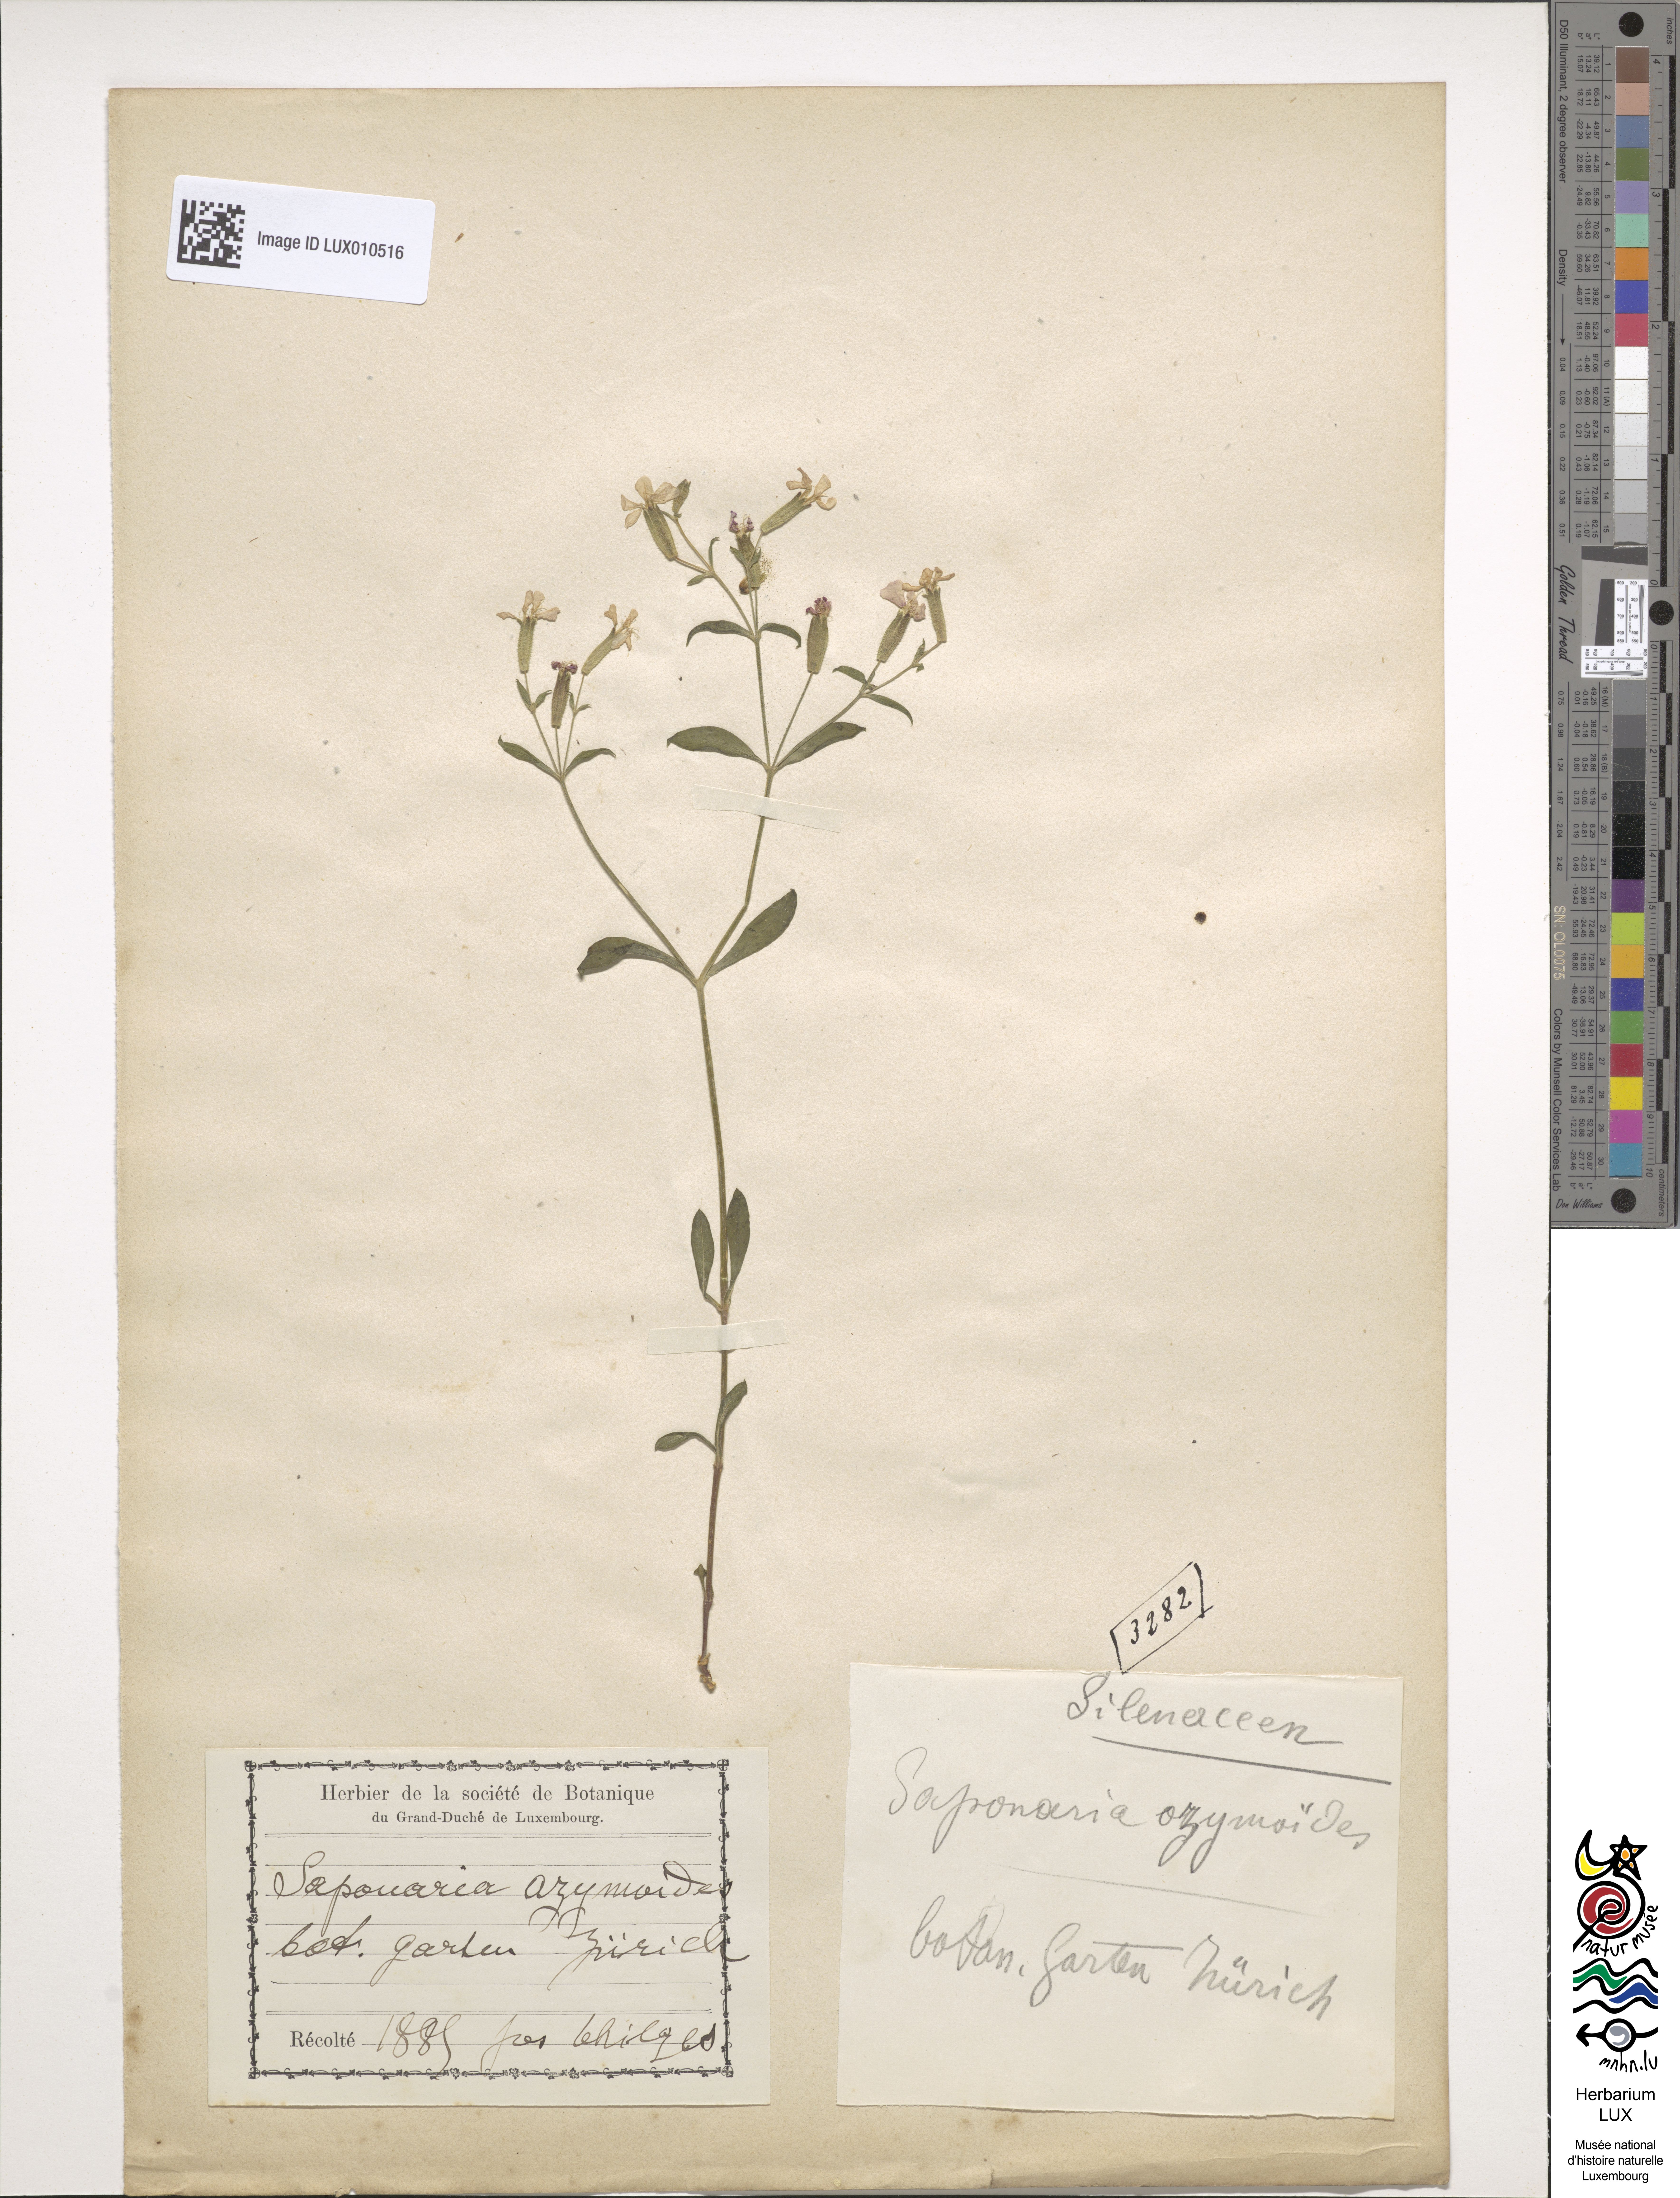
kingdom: Plantae
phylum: Tracheophyta
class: Magnoliopsida
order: Caryophyllales
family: Caryophyllaceae
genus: Saponaria
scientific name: Saponaria ocymoides
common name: Rock soapwort
